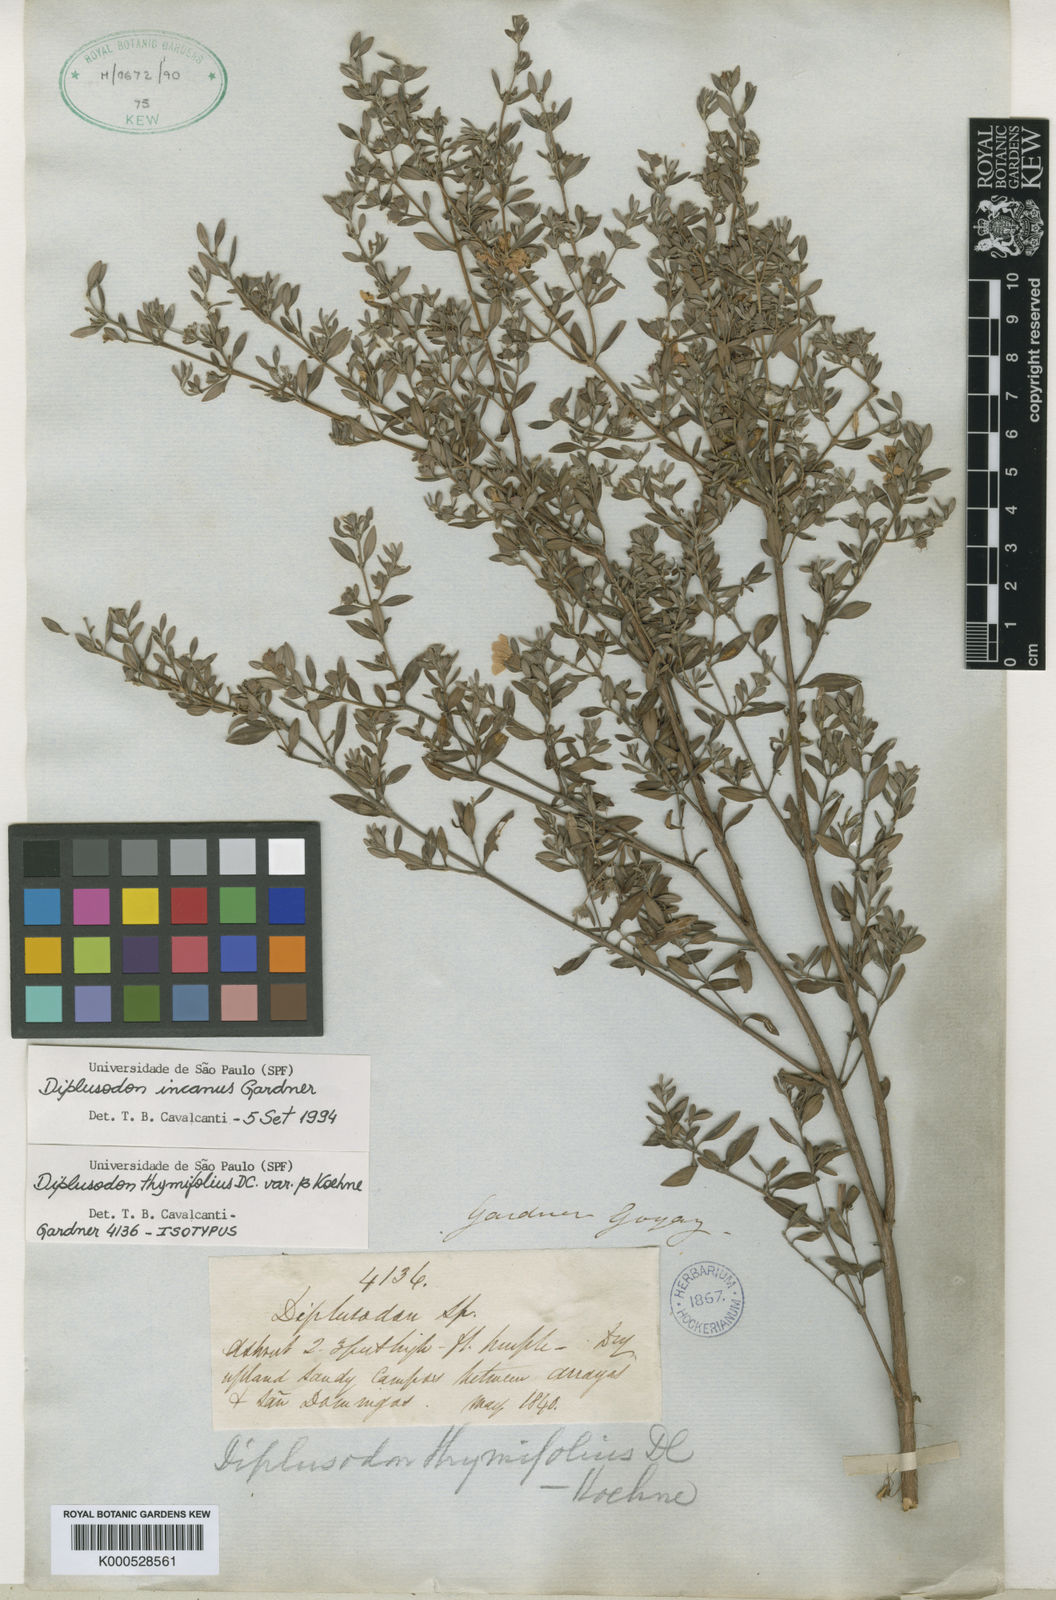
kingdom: Plantae
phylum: Tracheophyta
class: Magnoliopsida
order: Myrtales
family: Lythraceae
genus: Diplusodon
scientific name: Diplusodon incanus
